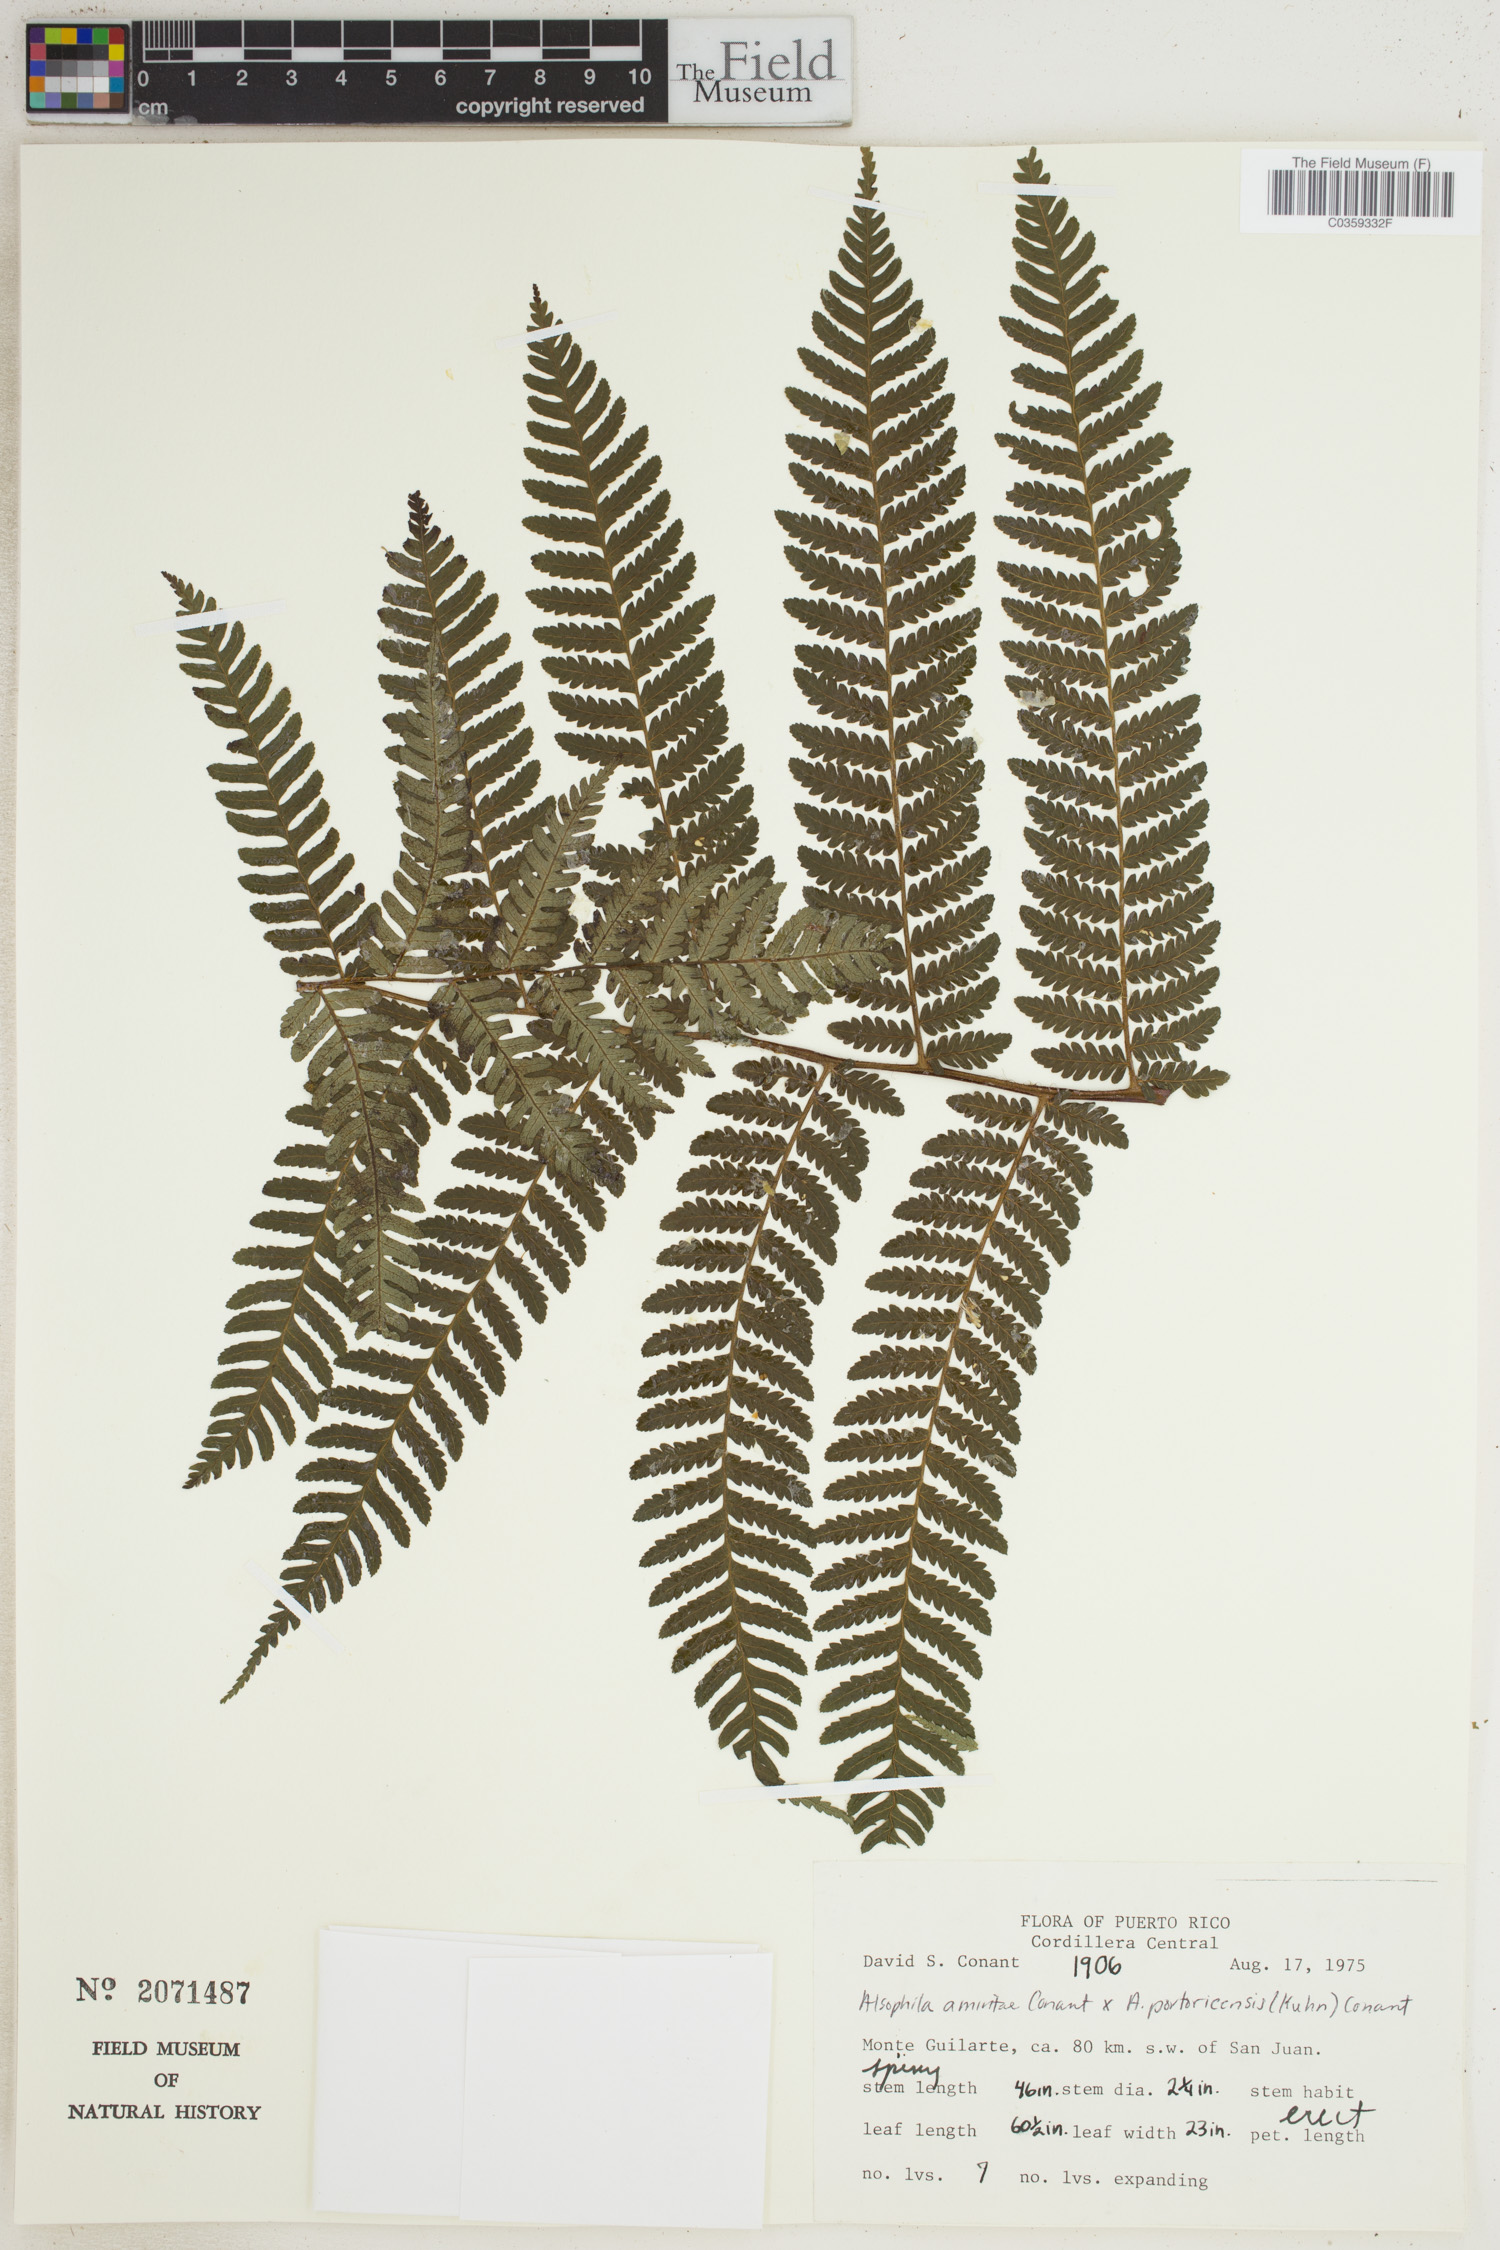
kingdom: Plantae
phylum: Tracheophyta
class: Polypodiopsida
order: Cyatheales
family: Cyatheaceae
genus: Alsophila
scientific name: Alsophila
